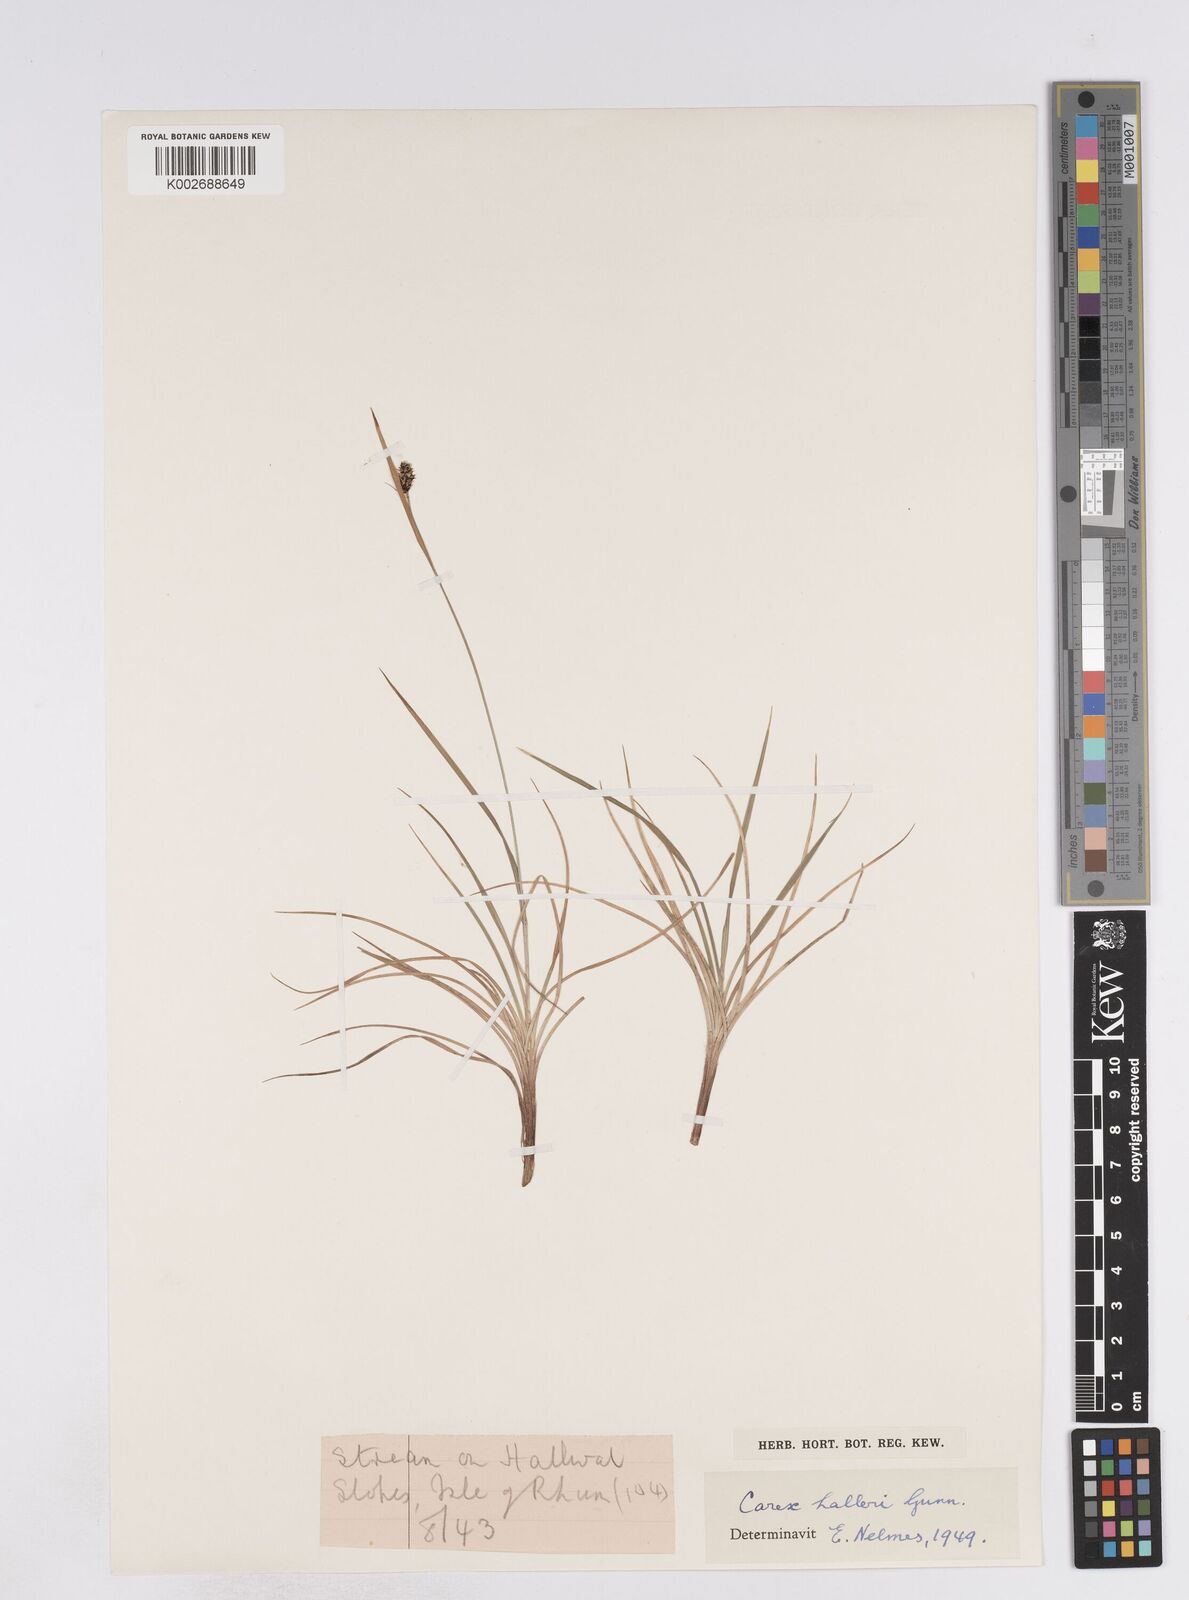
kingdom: Plantae
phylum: Tracheophyta
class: Liliopsida
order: Poales
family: Cyperaceae
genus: Carex
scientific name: Carex norvegica
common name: Close-headed alpine-sedge
